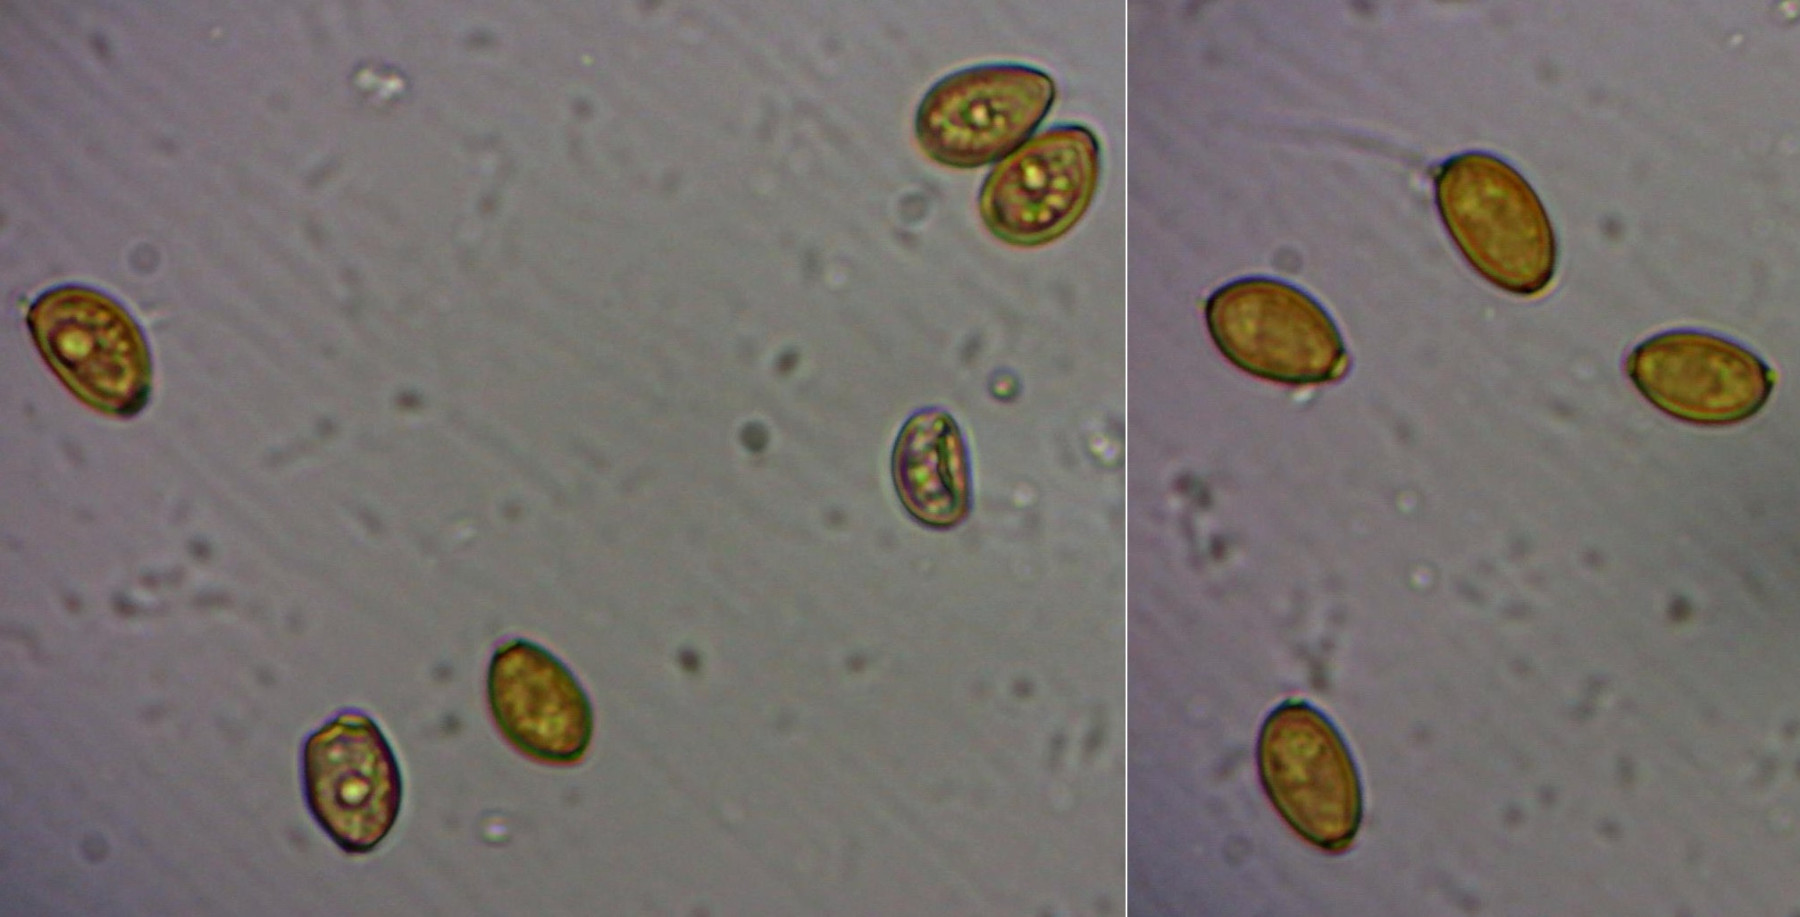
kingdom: Fungi
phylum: Basidiomycota
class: Agaricomycetes
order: Agaricales
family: Bolbitiaceae
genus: Conocybe
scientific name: Conocybe apala
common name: mælkehvid keglehat
